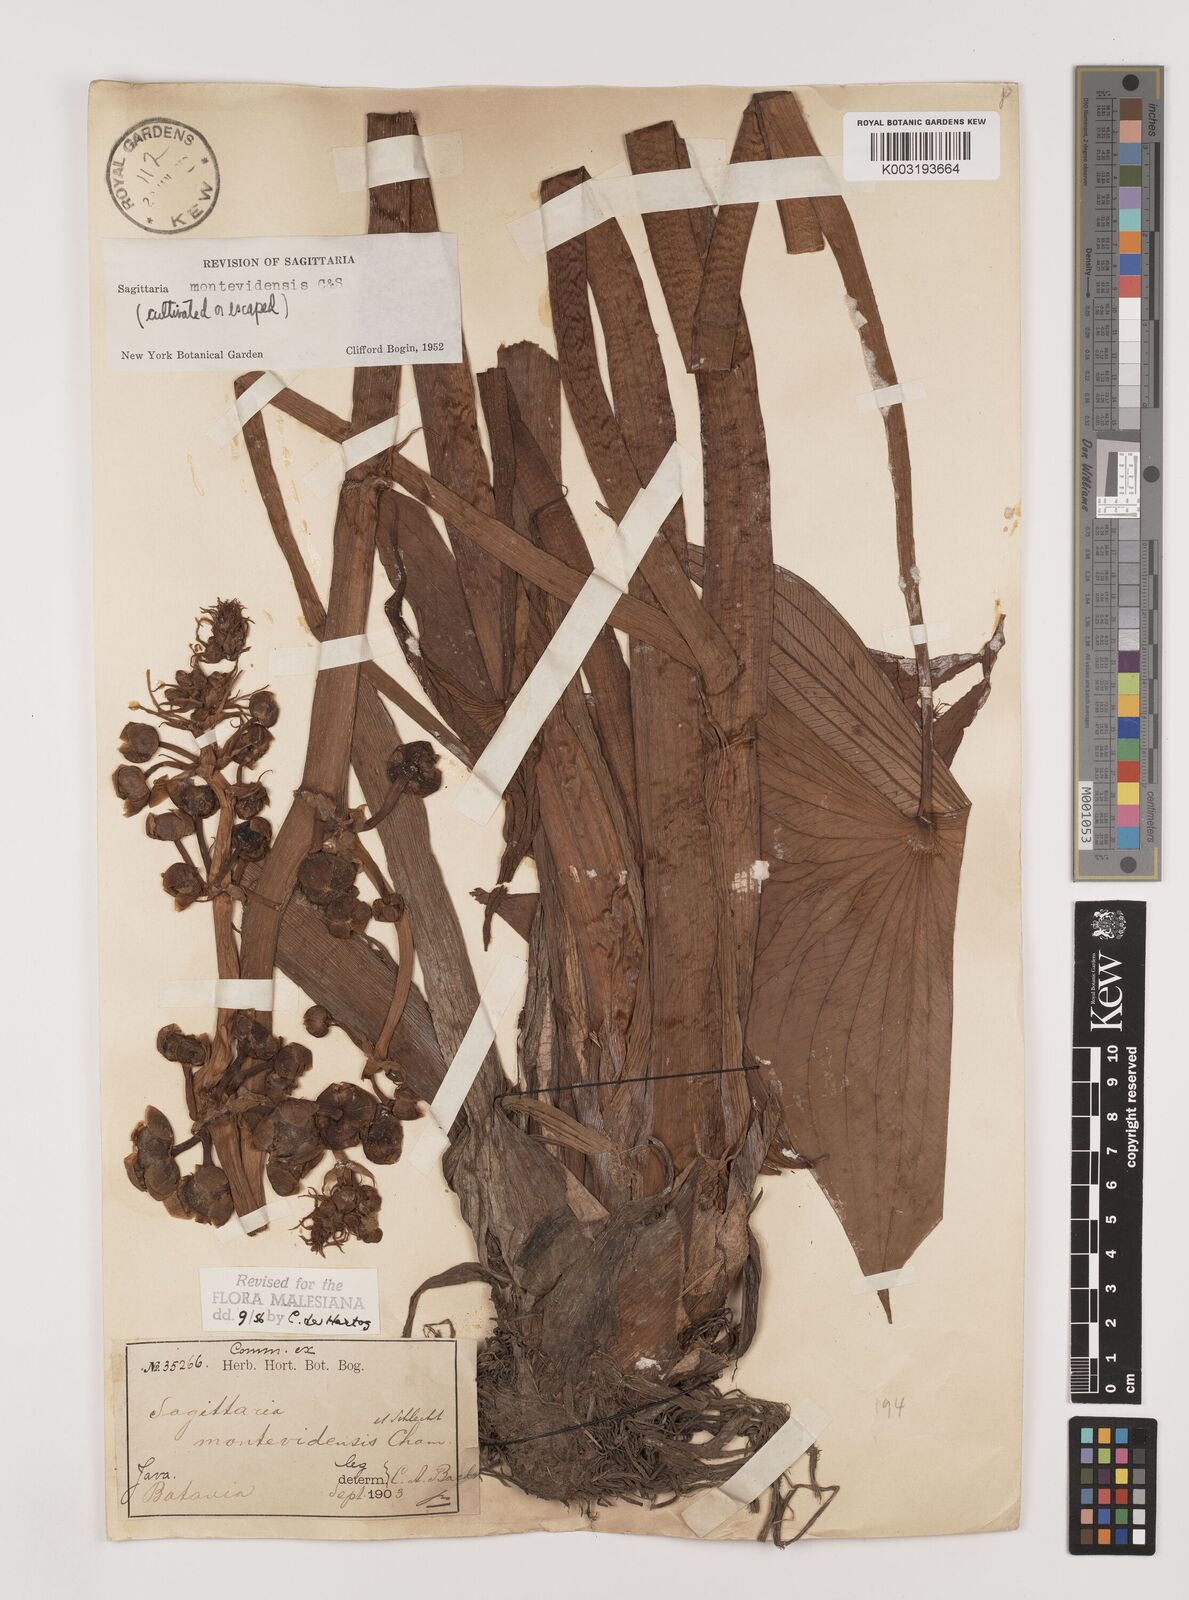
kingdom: Plantae
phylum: Tracheophyta
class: Liliopsida
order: Alismatales
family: Alismataceae
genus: Sagittaria
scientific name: Sagittaria montevidensis
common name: Giant arrowhead
